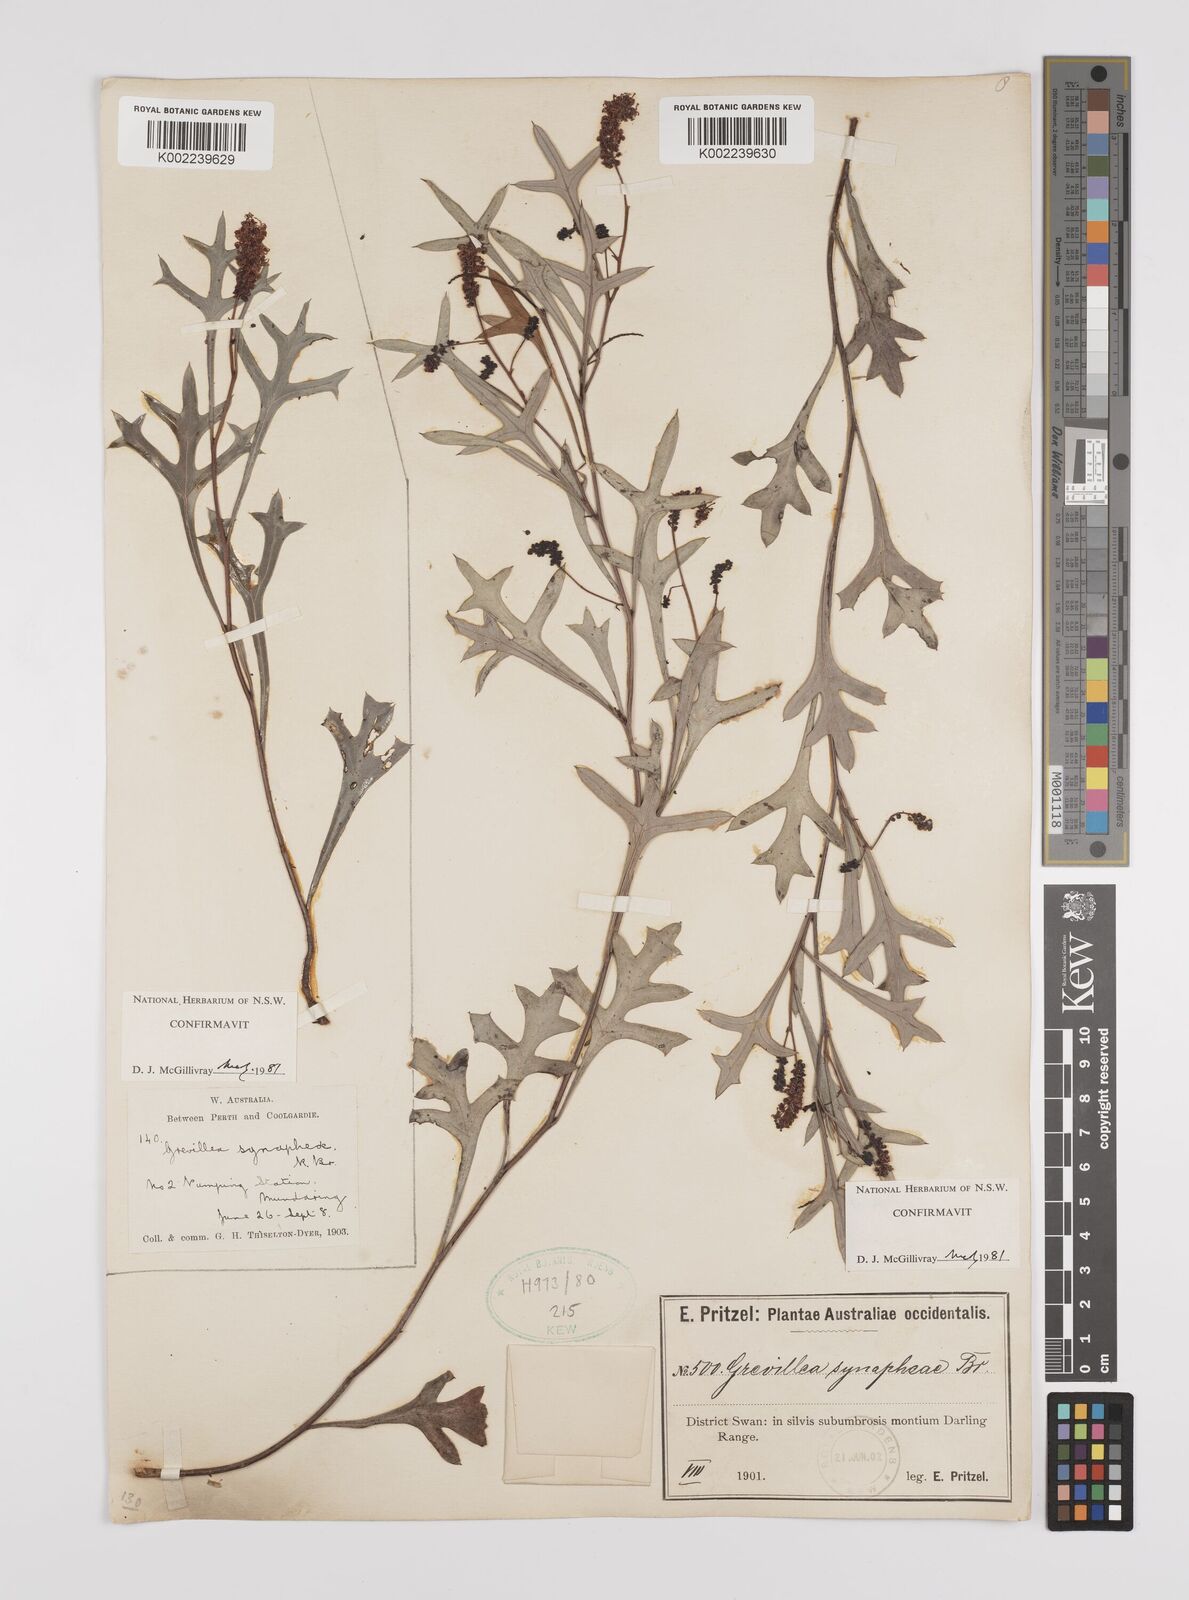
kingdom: Plantae
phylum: Tracheophyta
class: Magnoliopsida
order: Proteales
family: Proteaceae
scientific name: Proteaceae
